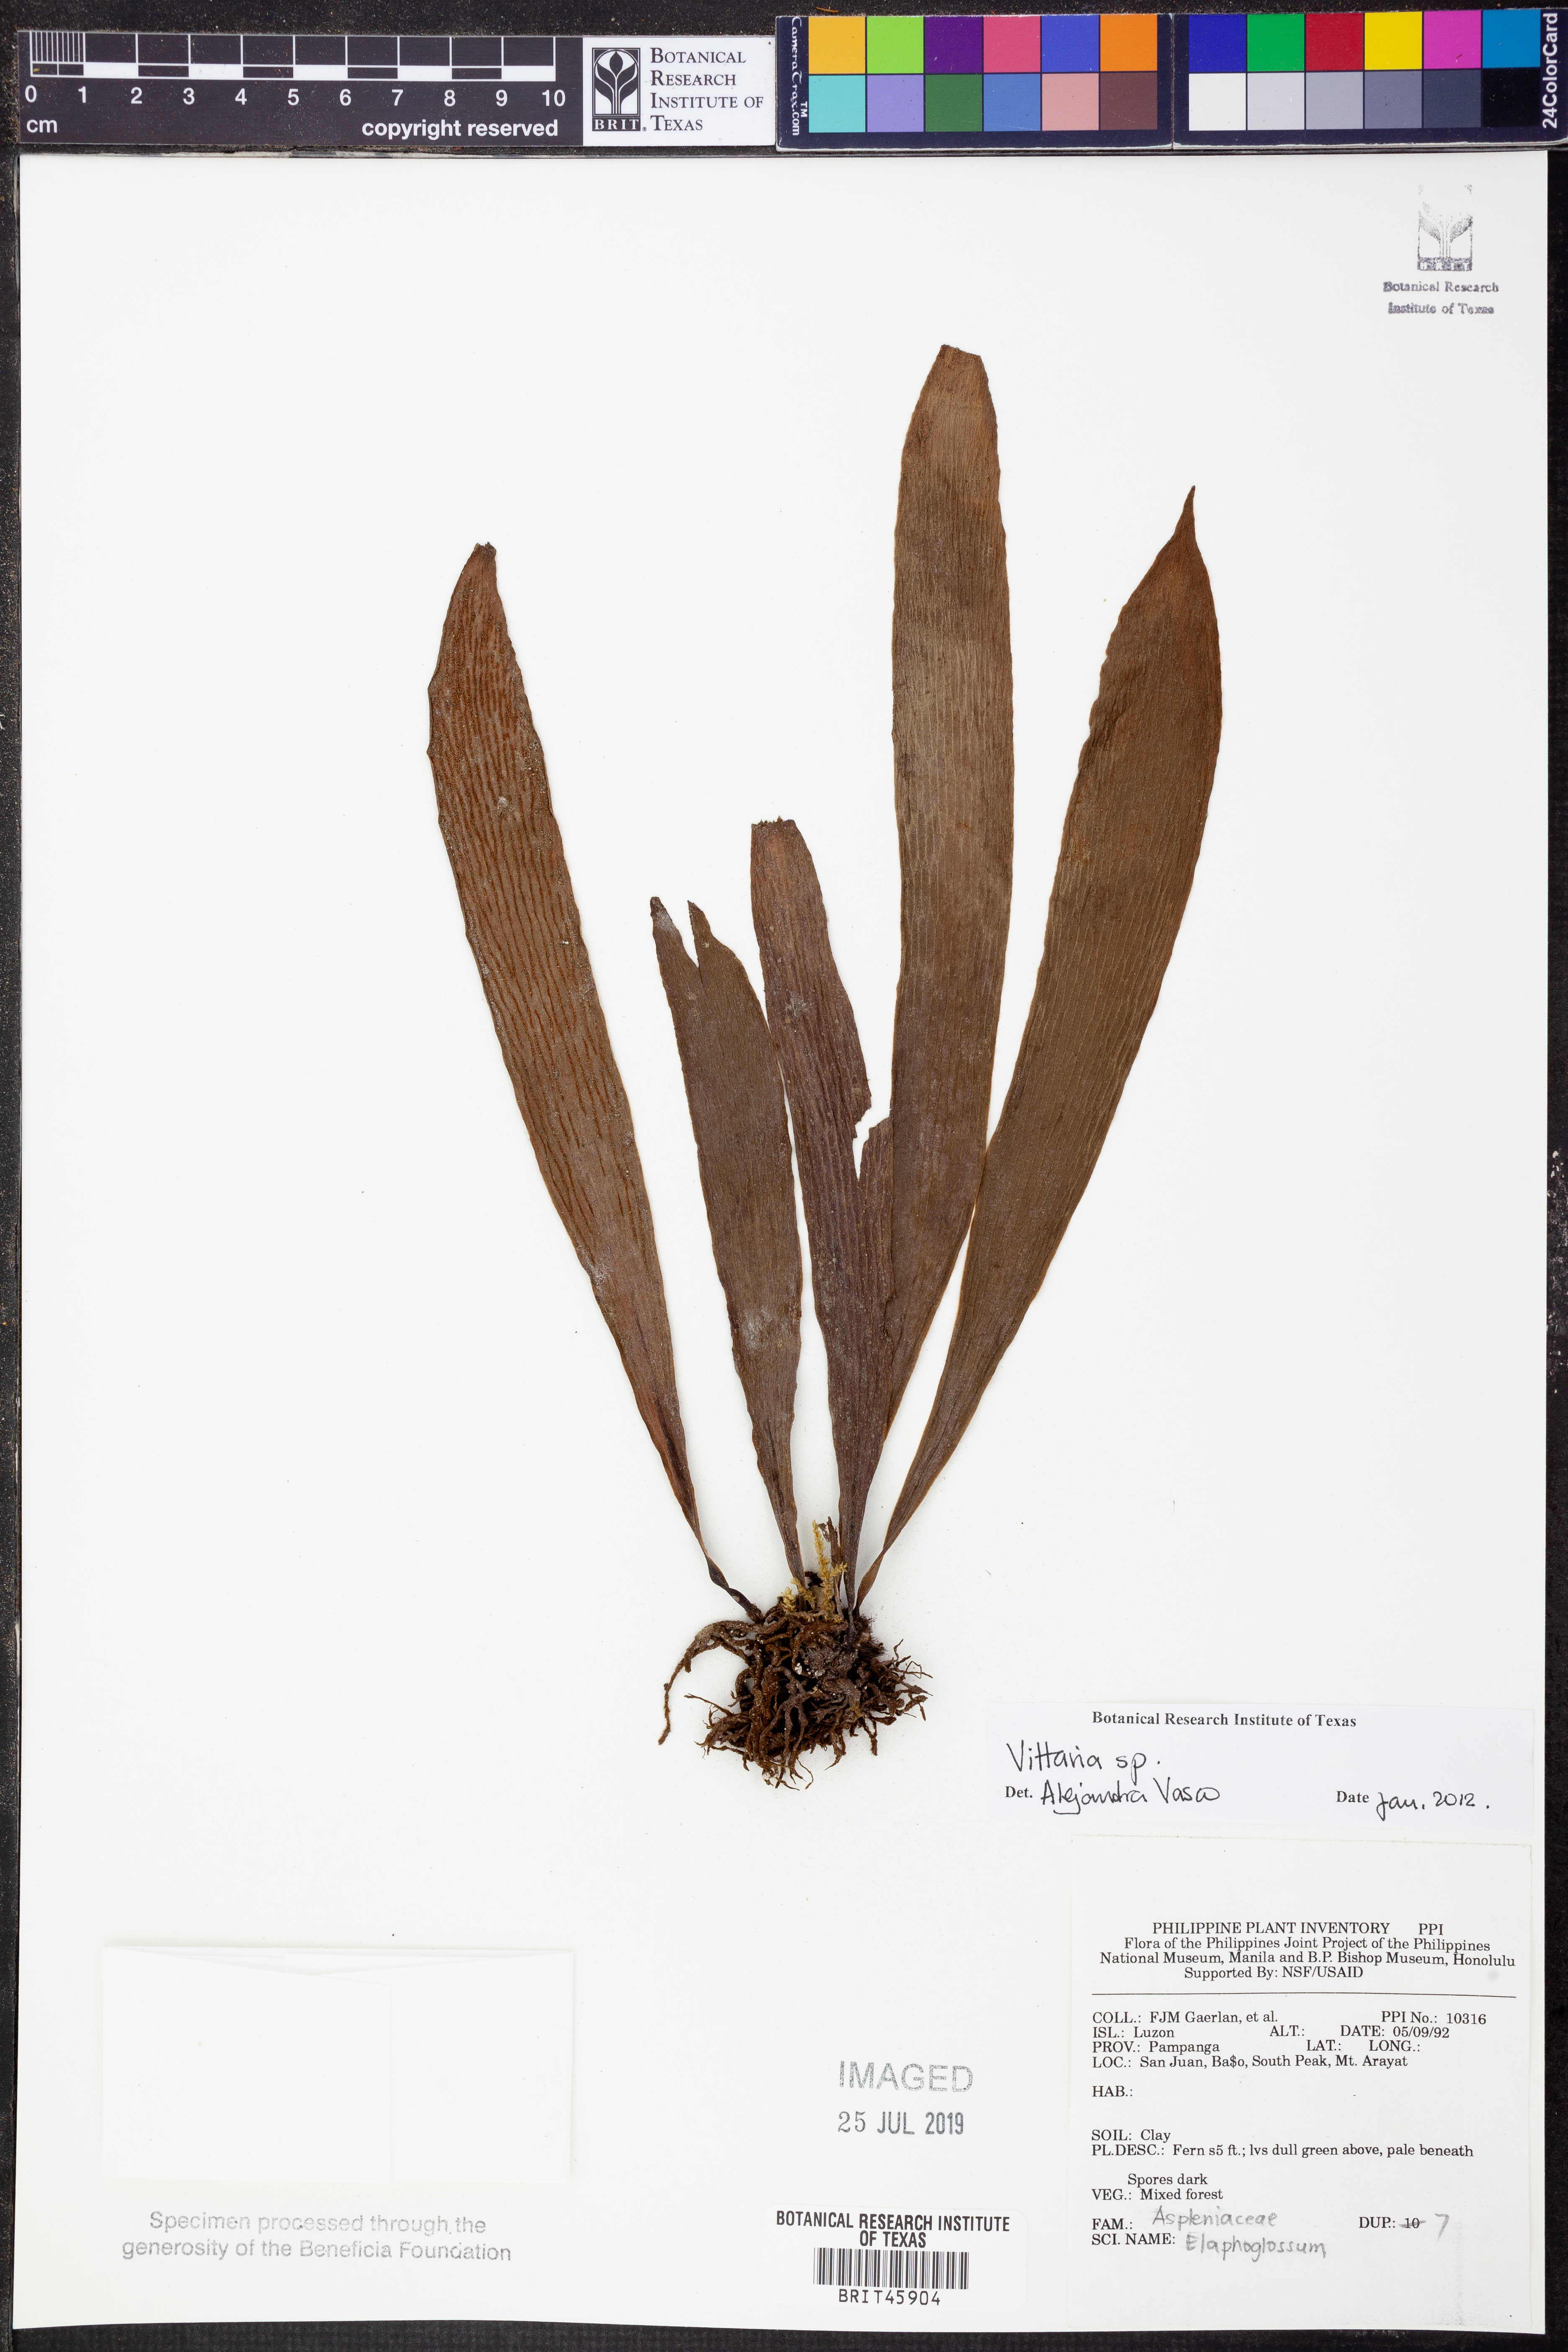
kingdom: Plantae
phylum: Tracheophyta
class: Polypodiopsida
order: Polypodiales
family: Pteridaceae
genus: Vittaria
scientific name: Vittaria
